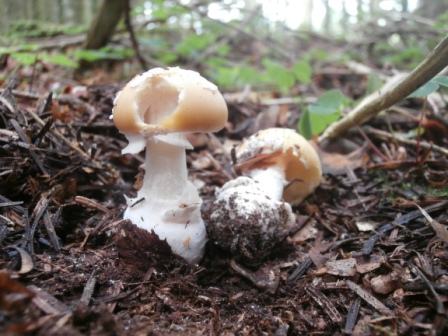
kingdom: Fungi
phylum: Basidiomycota
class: Agaricomycetes
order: Agaricales
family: Amanitaceae
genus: Amanita
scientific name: Amanita gemmata
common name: okkergul fluesvamp
